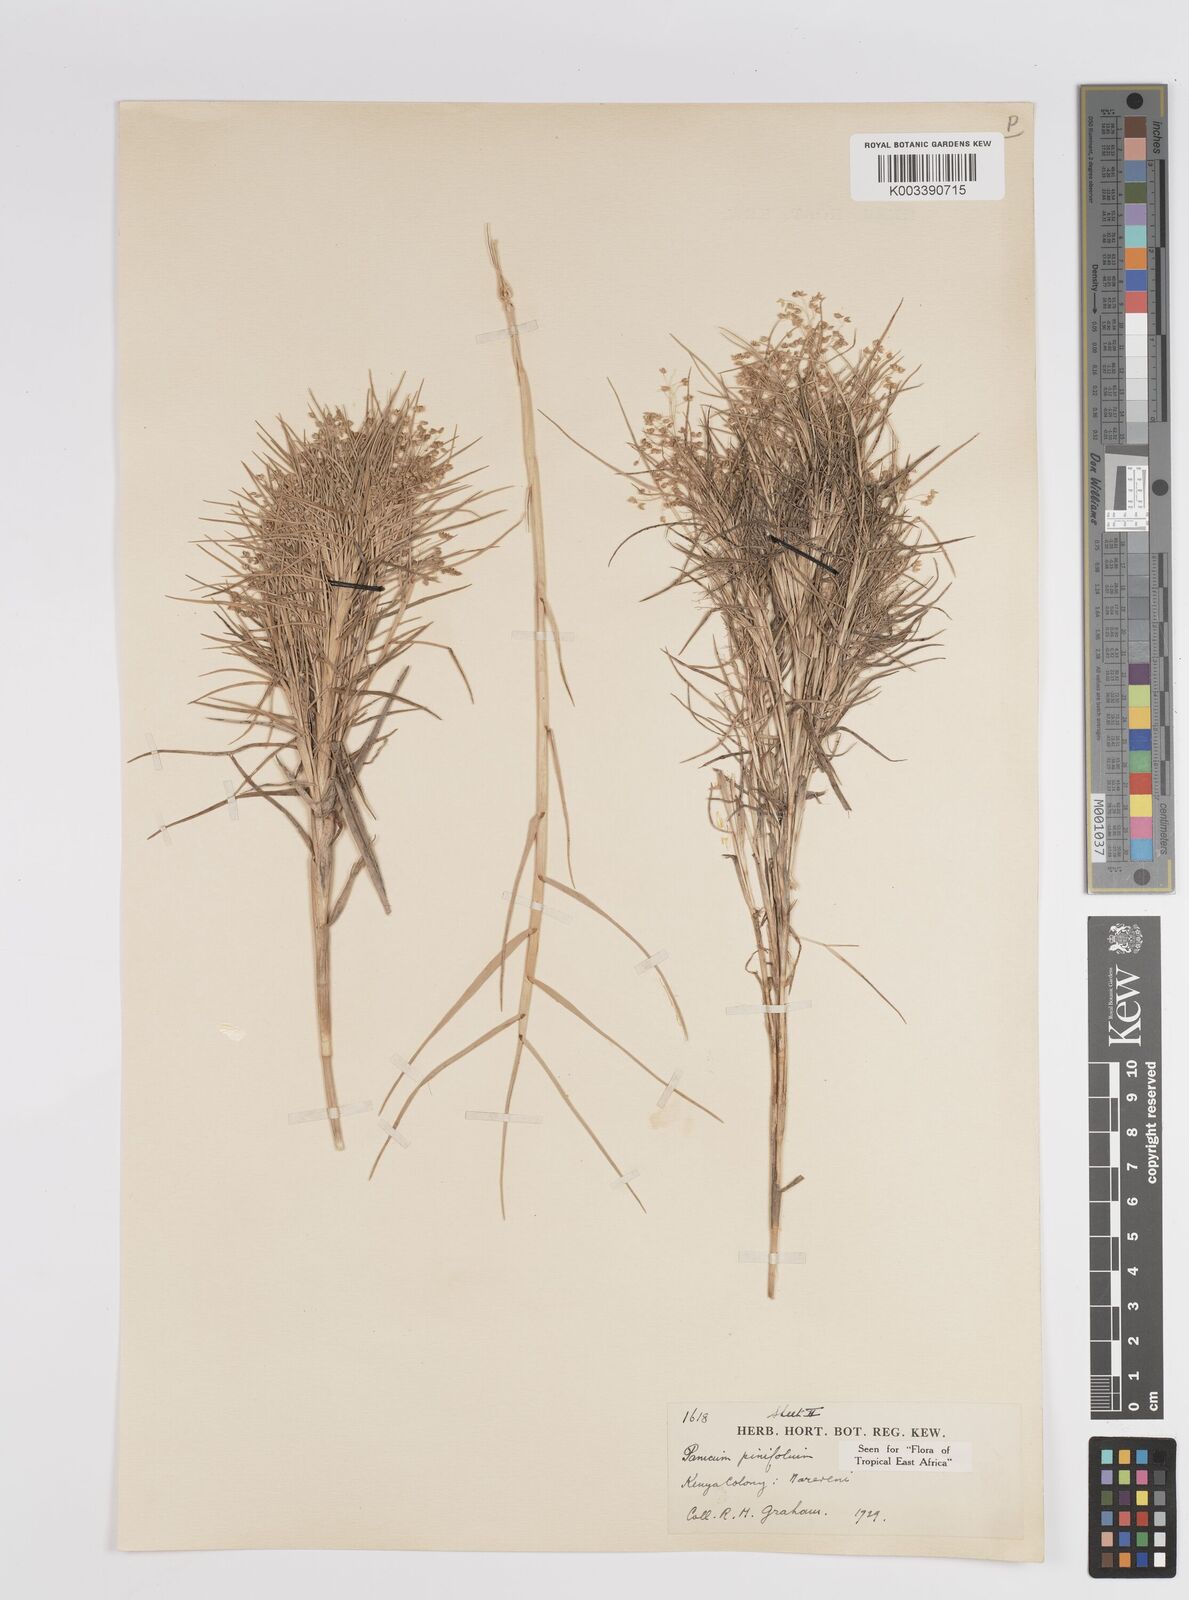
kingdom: Plantae
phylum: Tracheophyta
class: Liliopsida
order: Poales
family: Poaceae
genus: Panicum
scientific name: Panicum pinifolium
